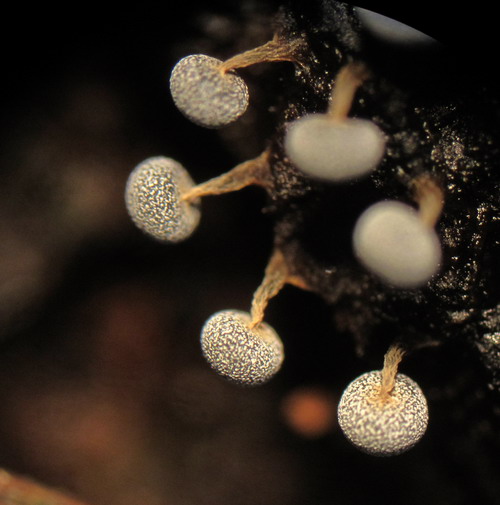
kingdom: Protozoa
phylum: Mycetozoa
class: Myxomycetes
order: Physarales
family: Physaraceae
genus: Physarum
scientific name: Physarum album
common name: nikkende støvknop
